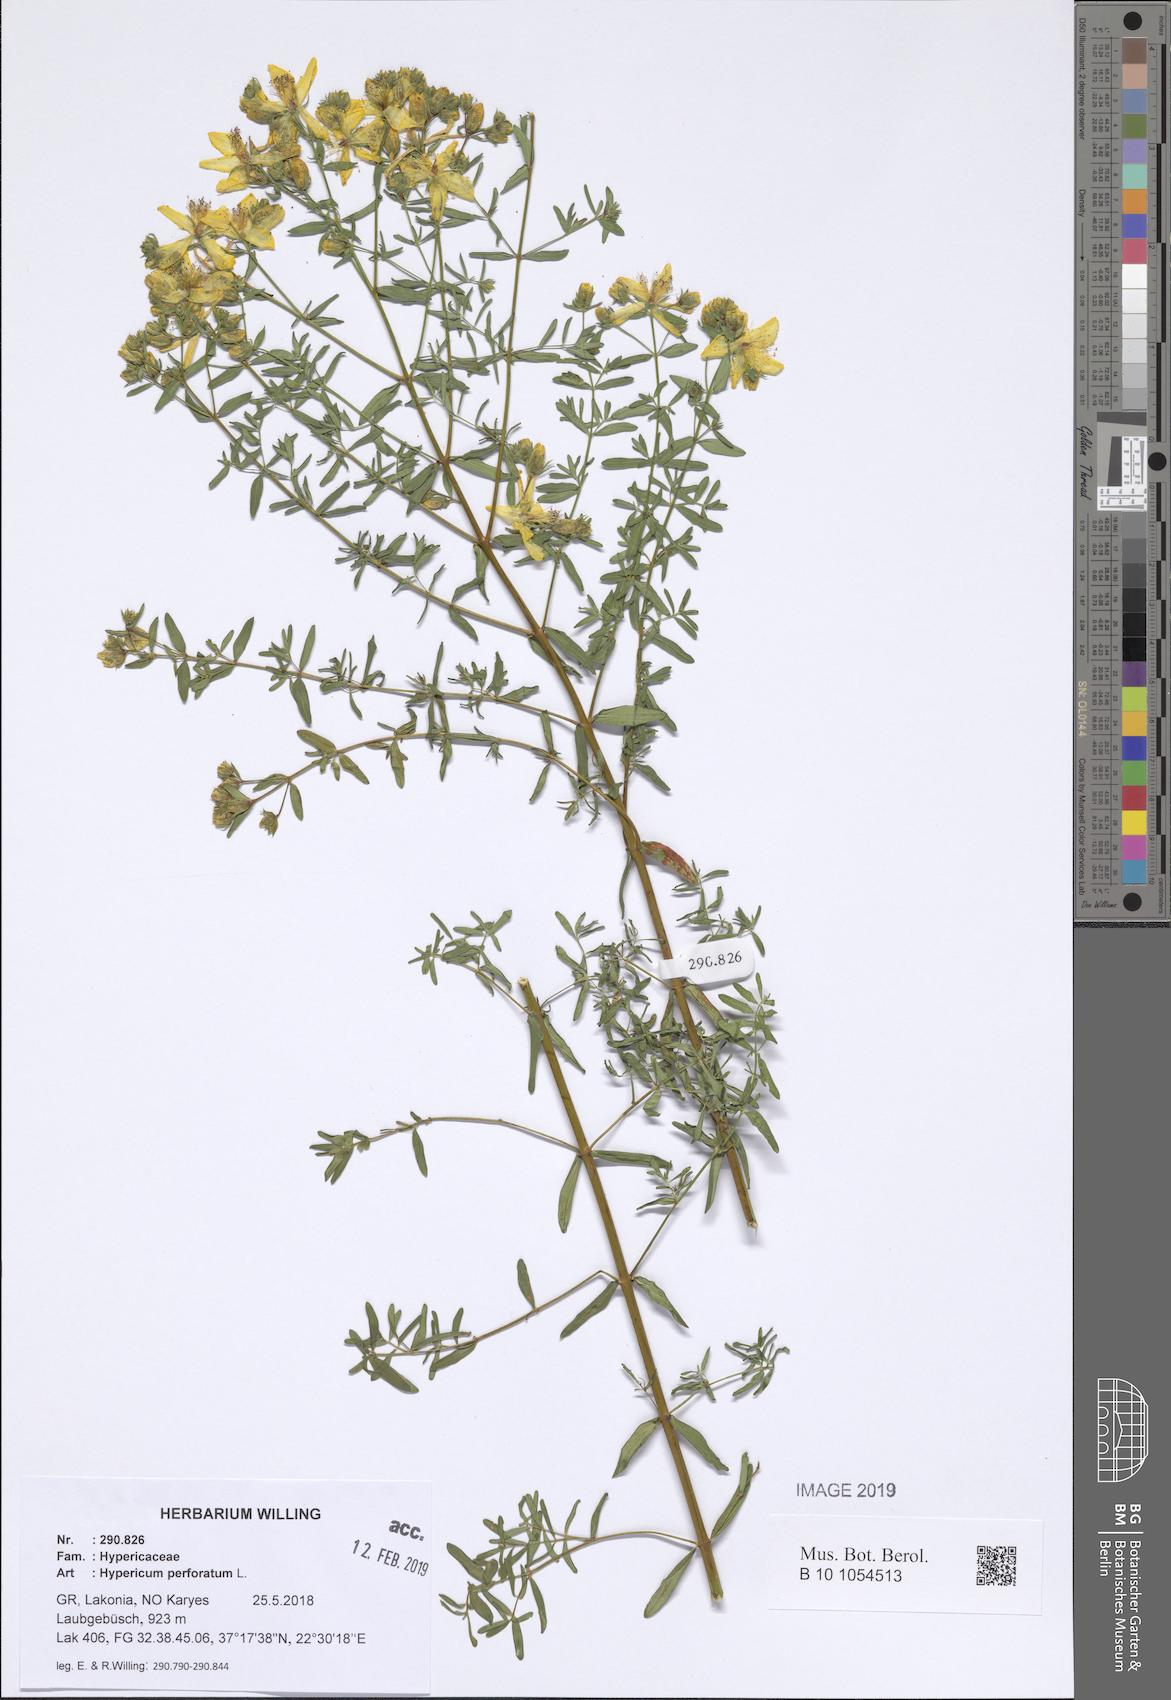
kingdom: Plantae
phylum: Tracheophyta
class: Magnoliopsida
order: Malpighiales
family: Hypericaceae
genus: Hypericum
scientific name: Hypericum perforatum
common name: Common st. johnswort
